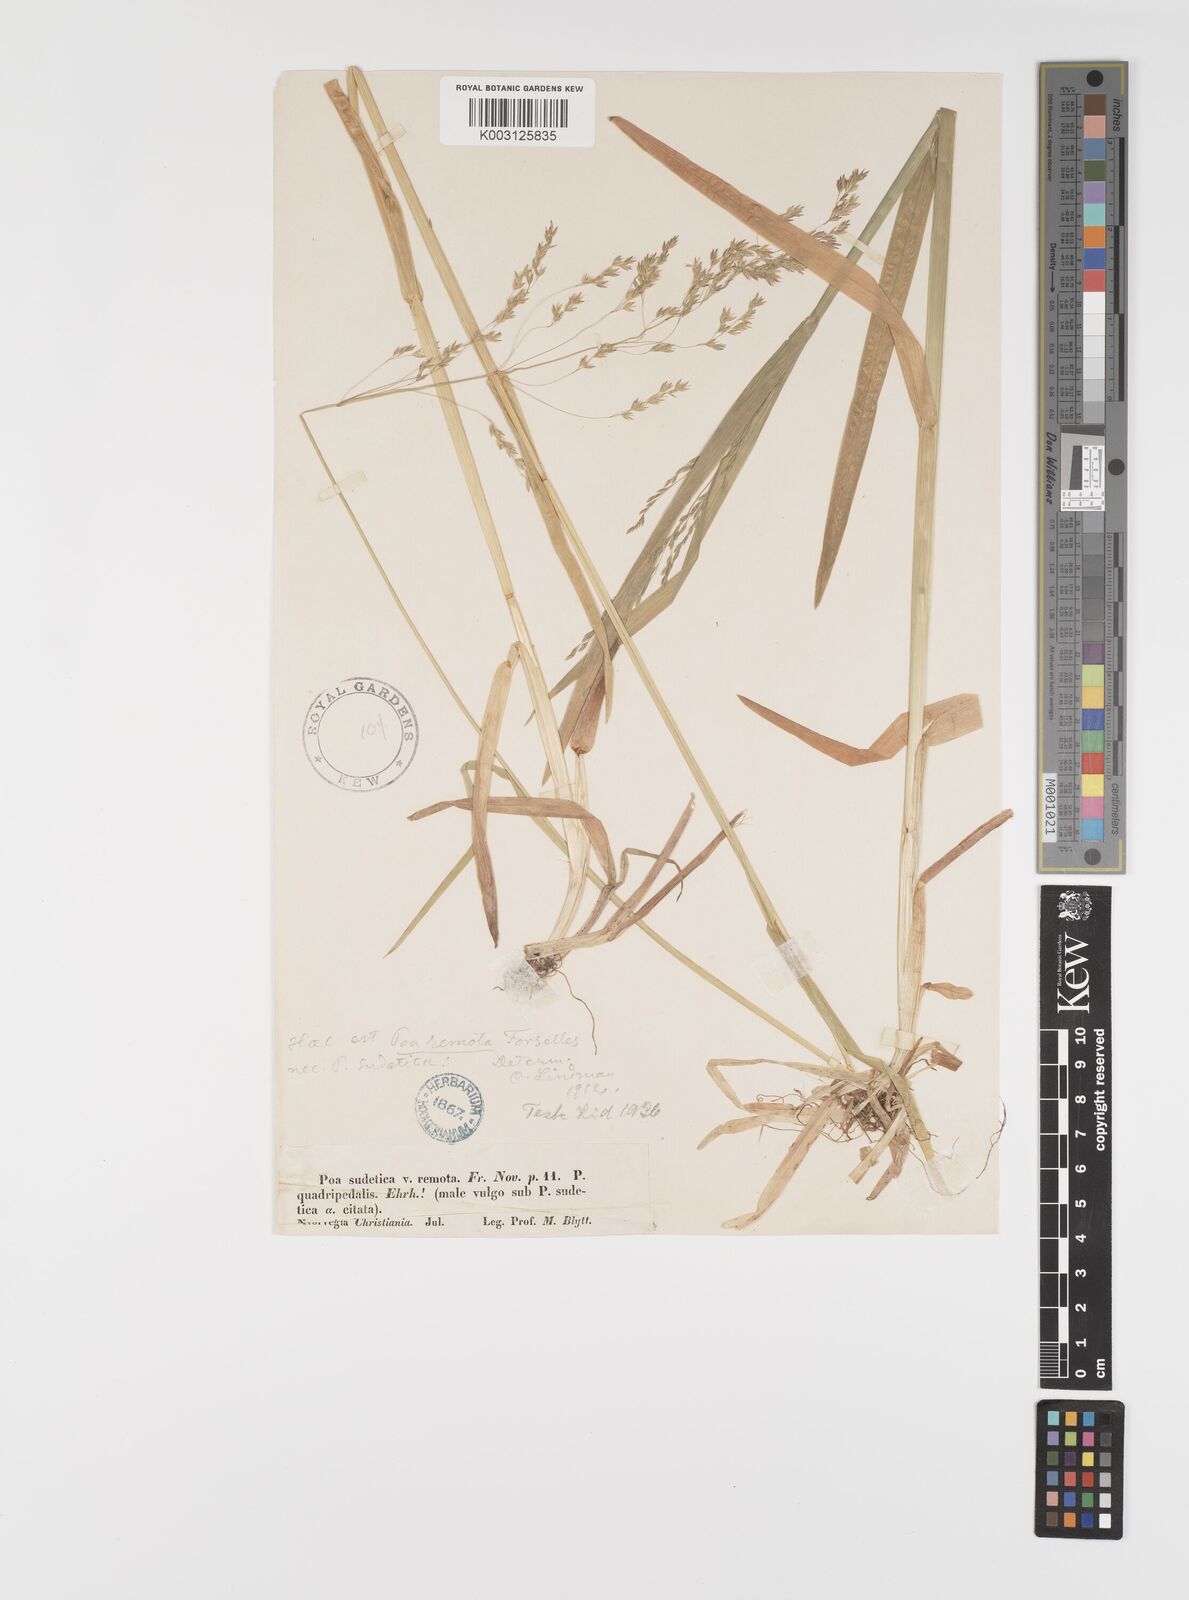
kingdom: Plantae
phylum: Tracheophyta
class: Liliopsida
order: Poales
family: Poaceae
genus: Poa
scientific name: Poa remota
